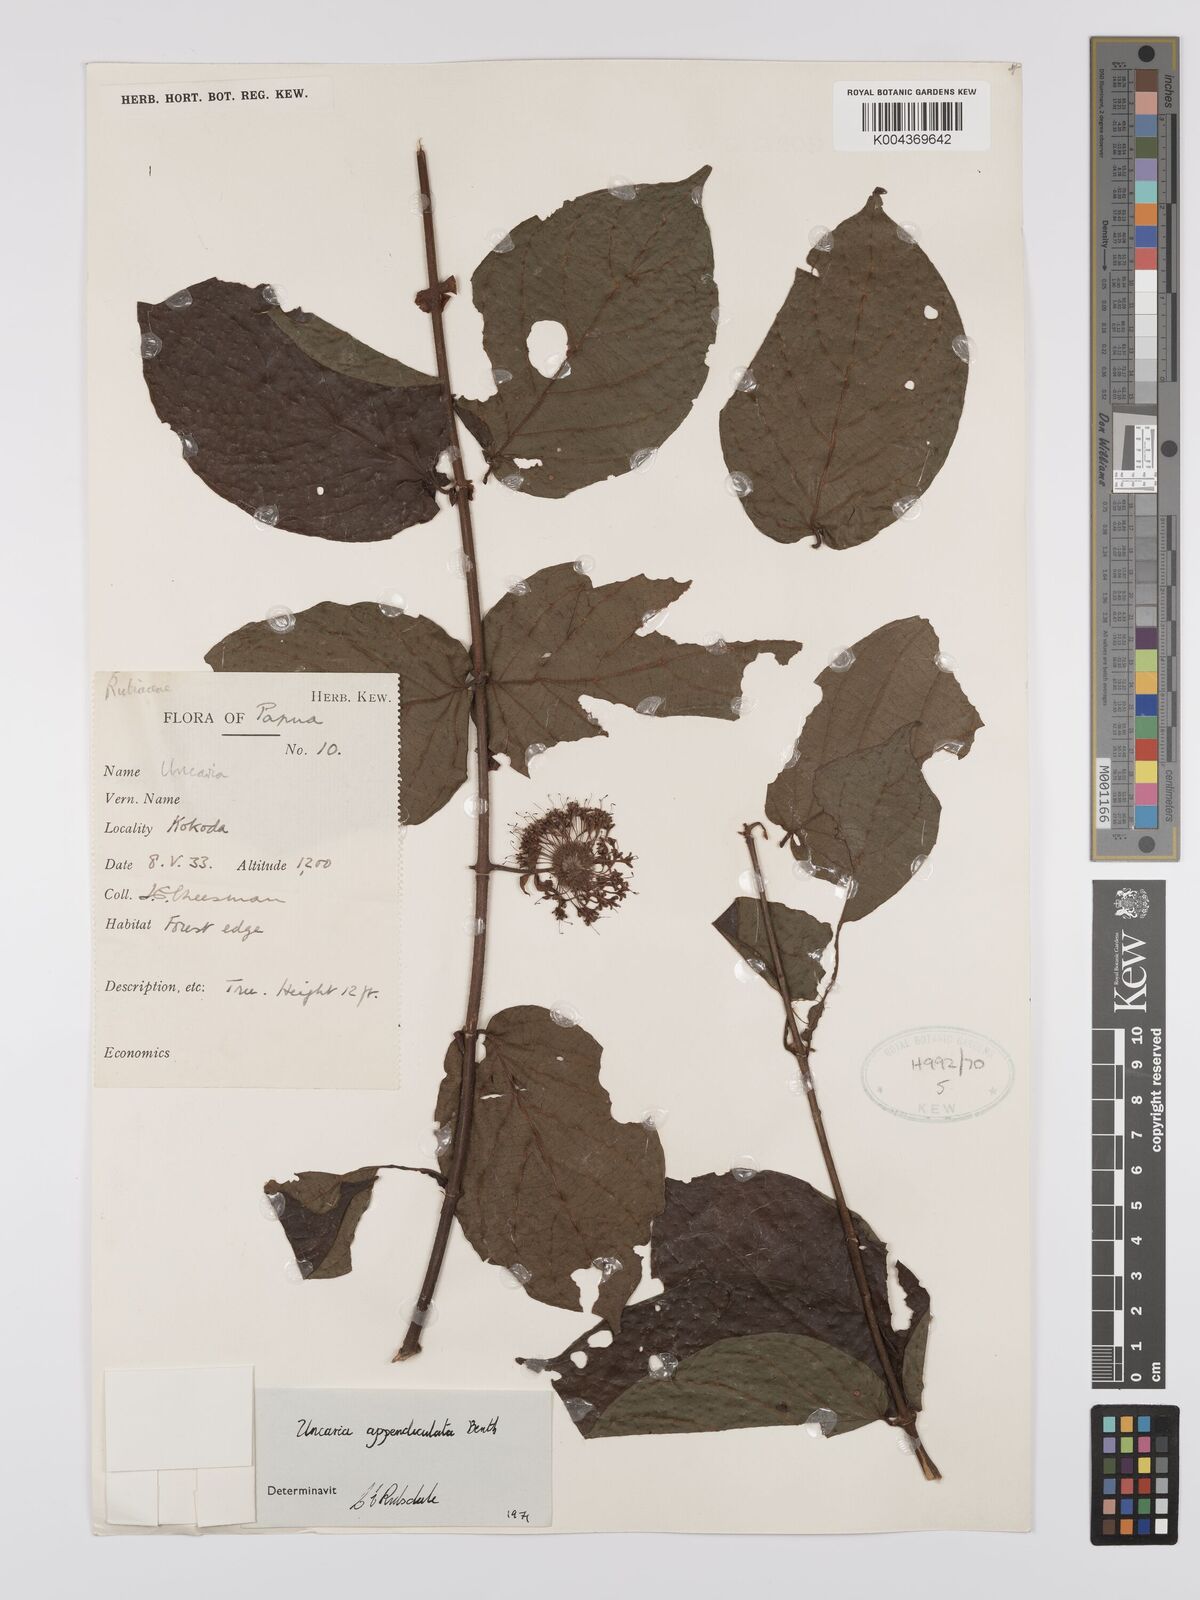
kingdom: Plantae
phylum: Tracheophyta
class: Magnoliopsida
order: Gentianales
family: Rubiaceae
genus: Uncaria
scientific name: Uncaria lanosa
